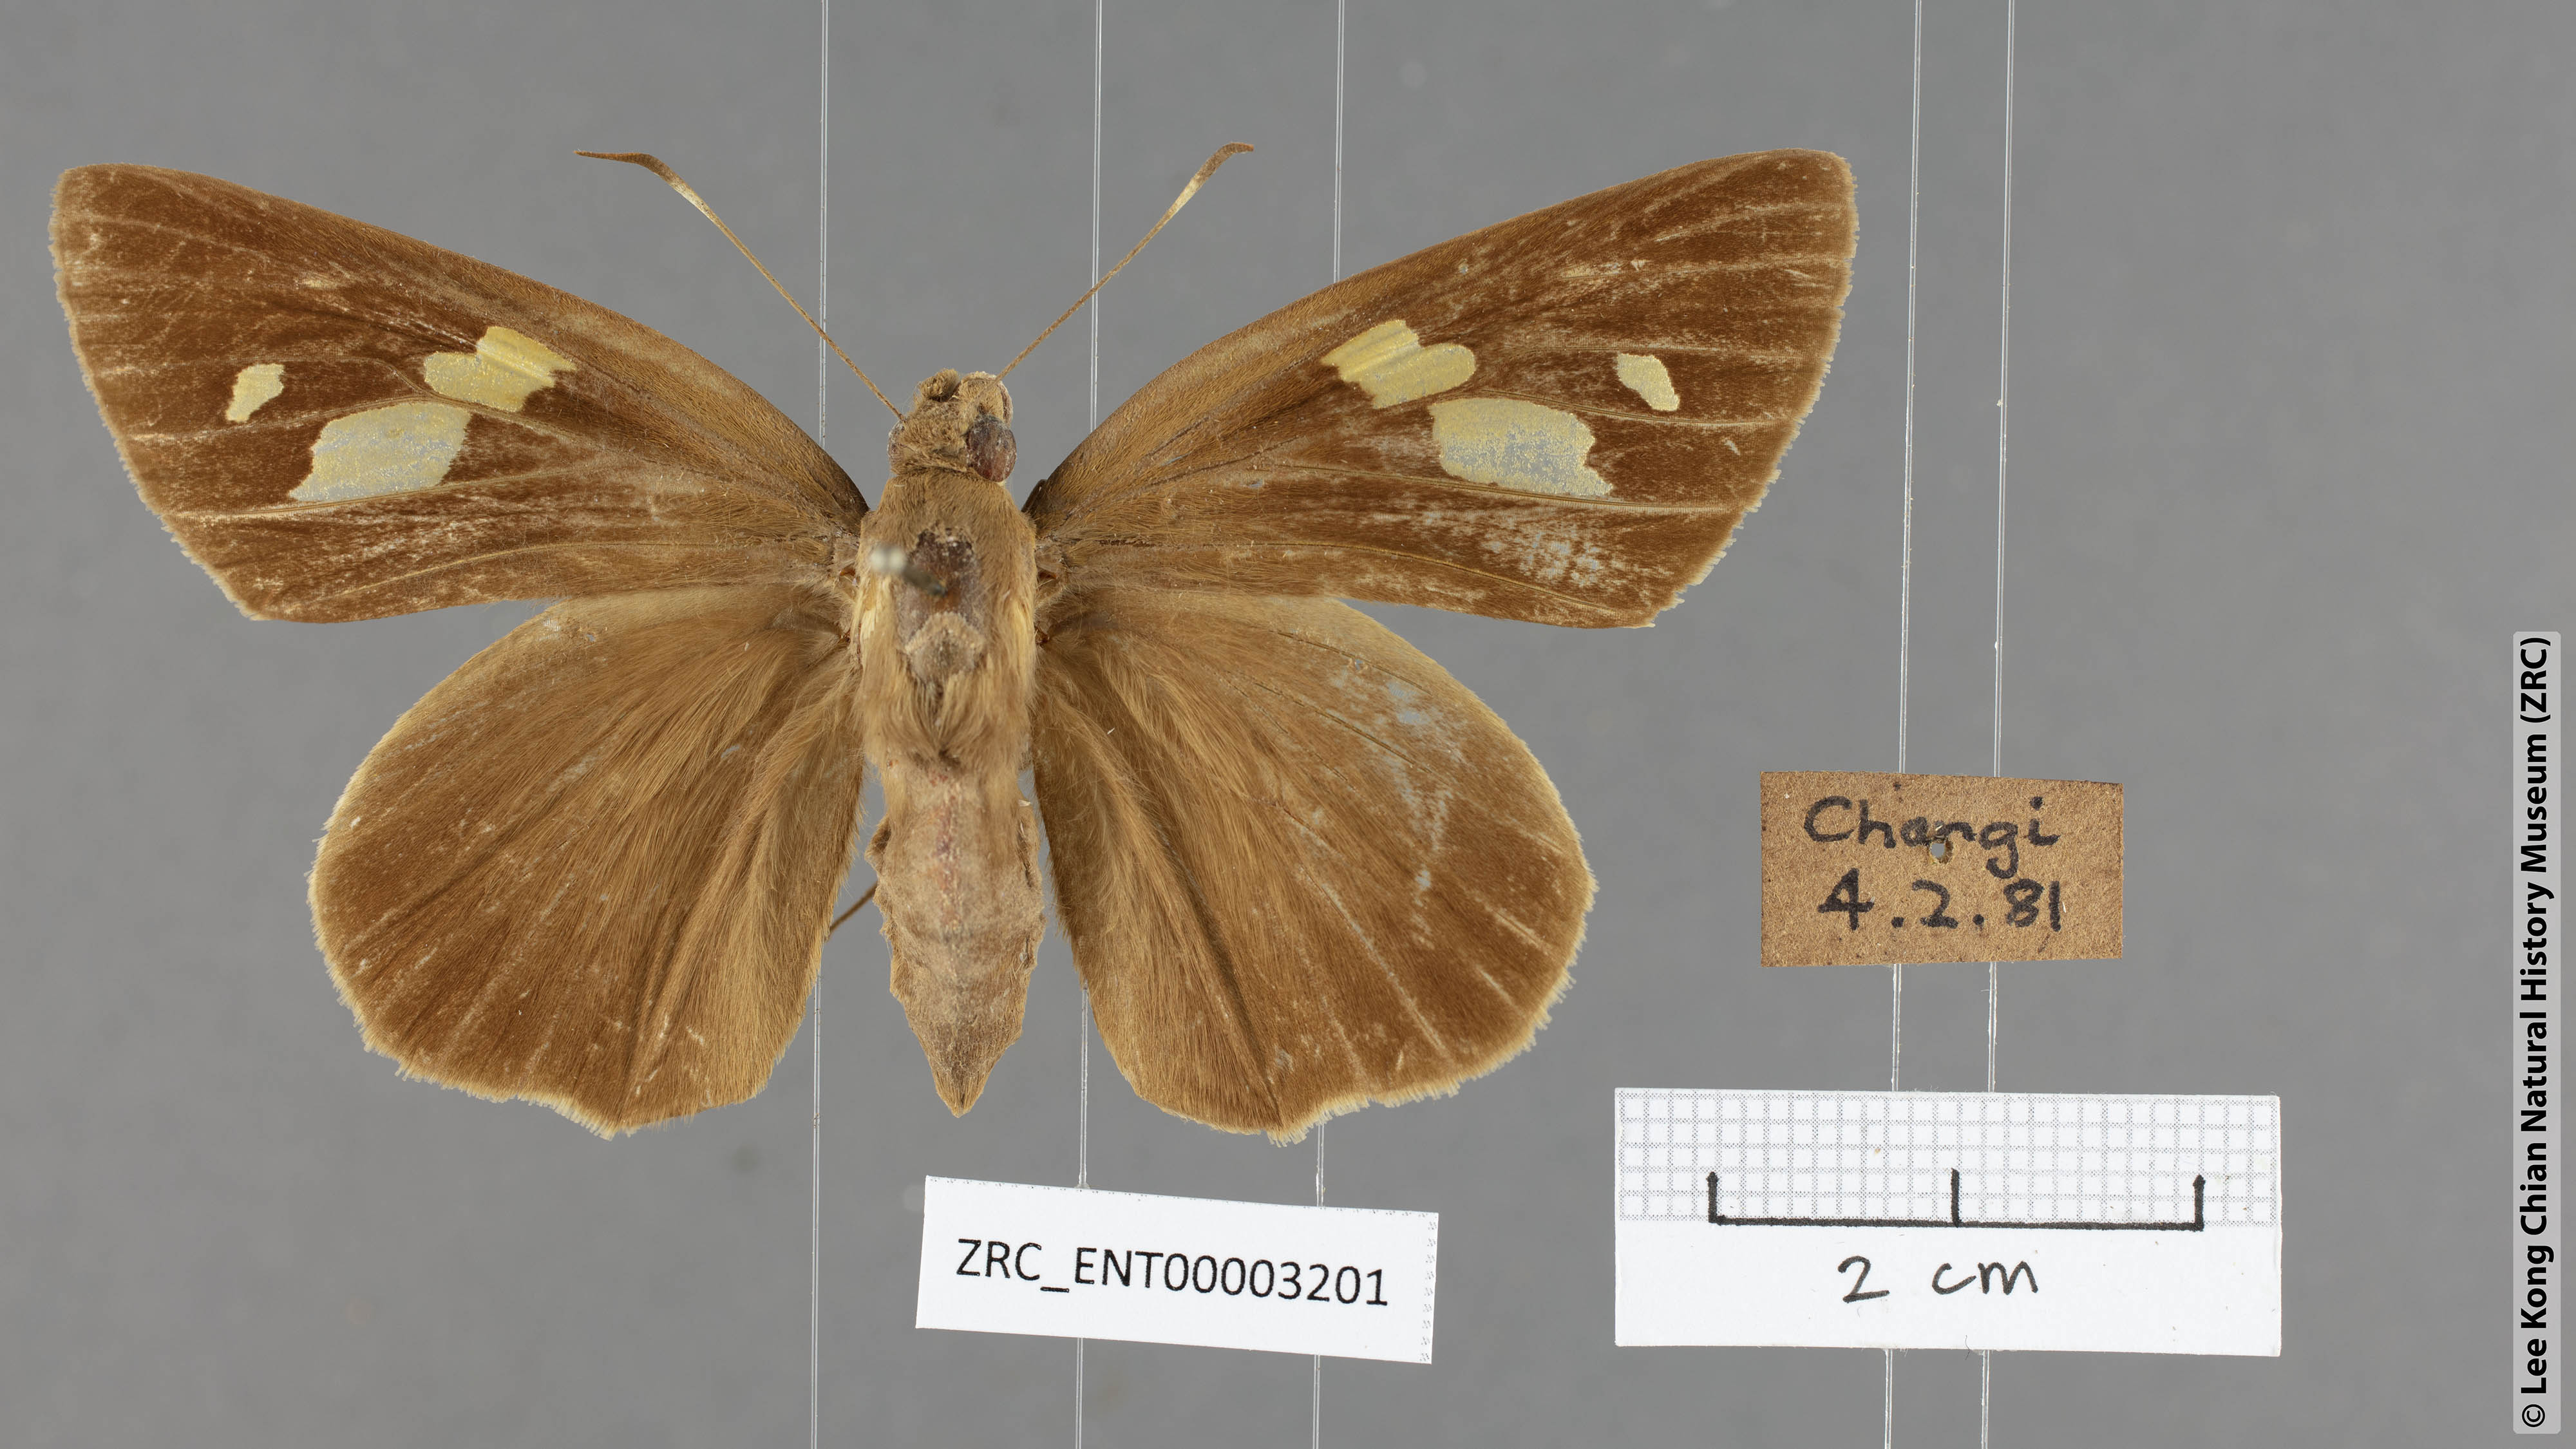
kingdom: Animalia
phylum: Arthropoda
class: Insecta
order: Lepidoptera
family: Hesperiidae
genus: Erionota
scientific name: Erionota torus
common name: Rounded palm-redeye
